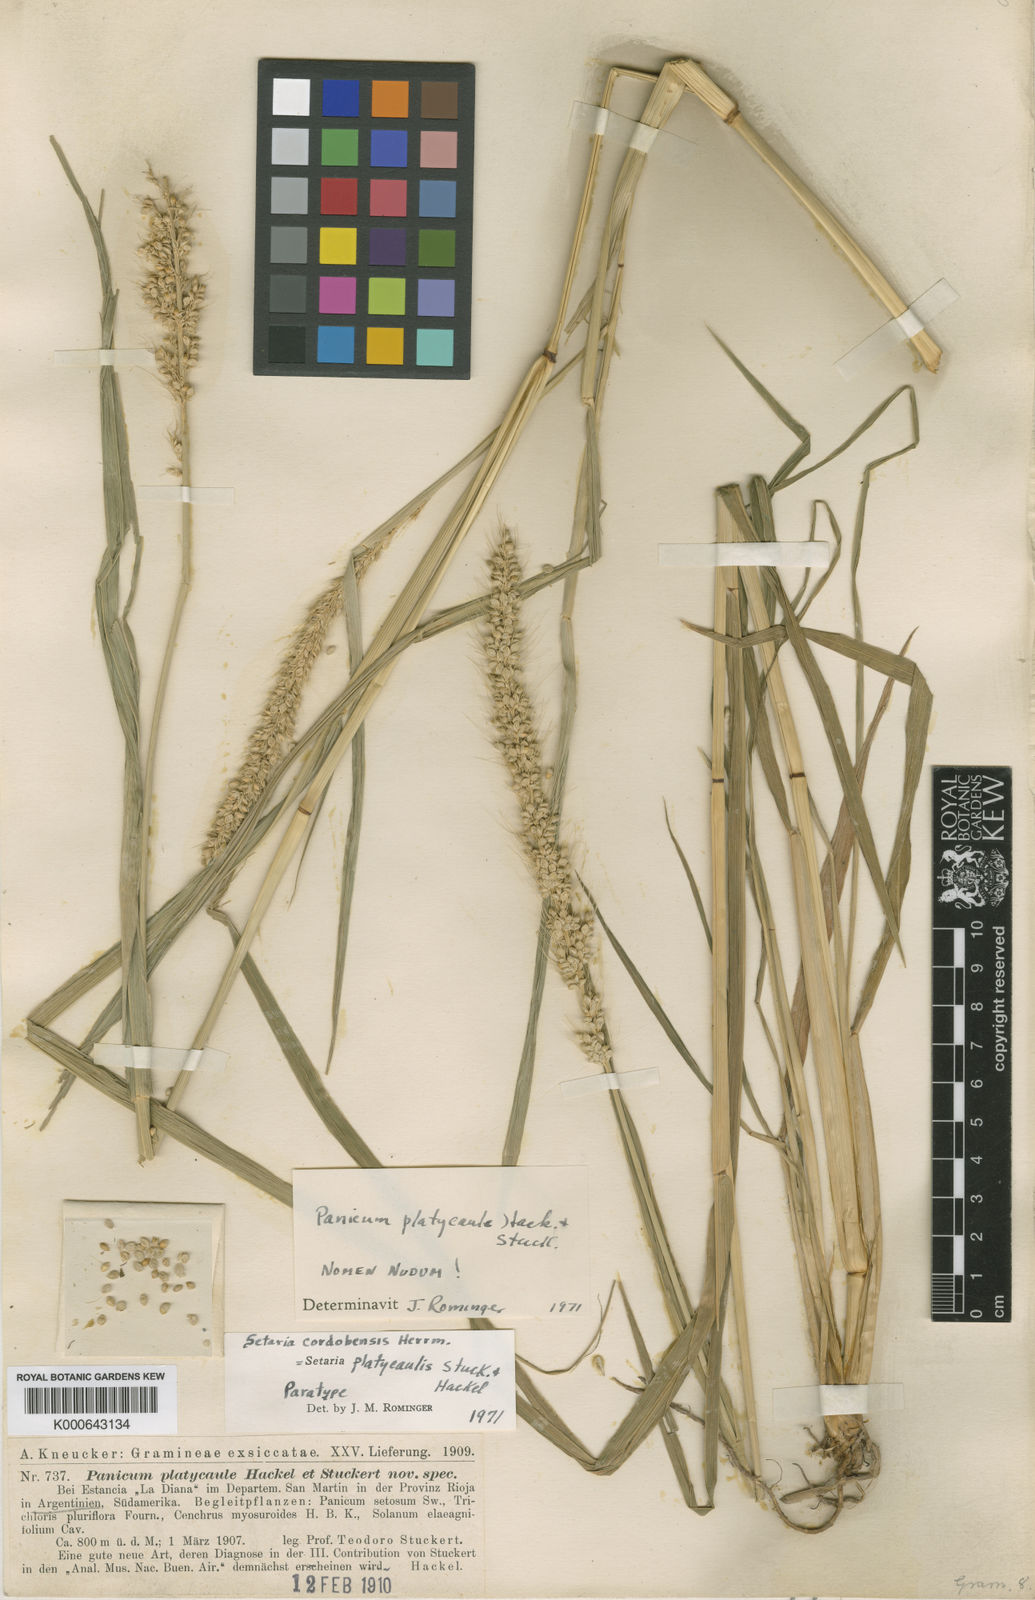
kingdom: Plantae
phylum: Tracheophyta
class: Liliopsida
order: Poales
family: Poaceae
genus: Setaria
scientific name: Setaria cordobensis
